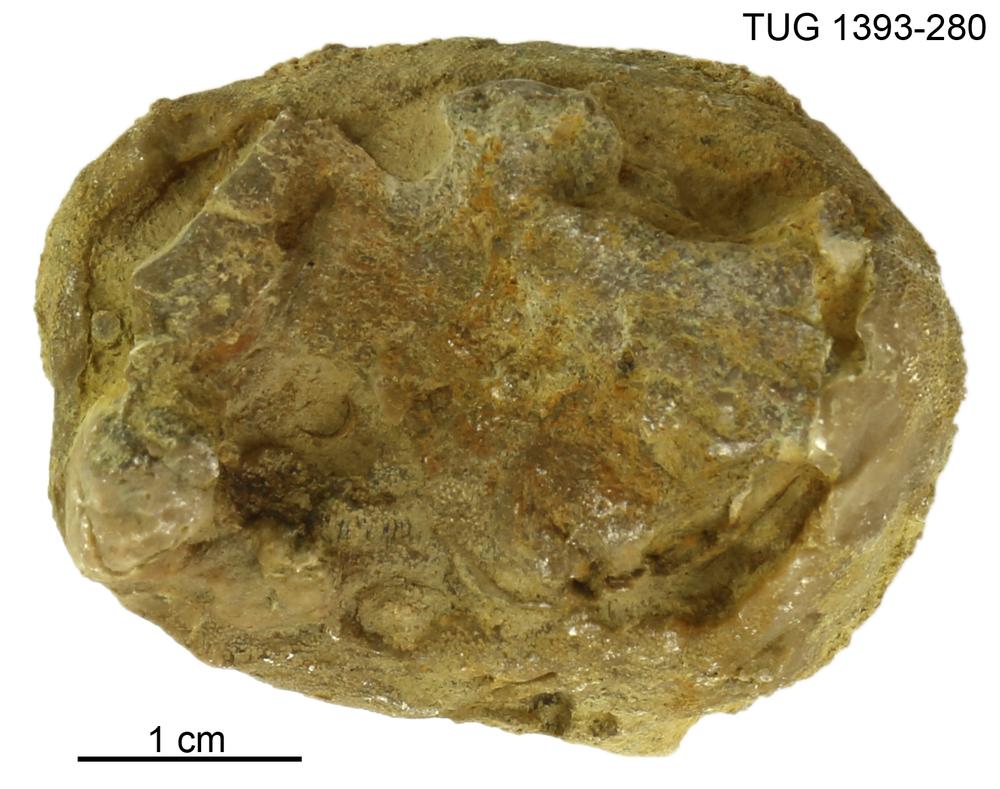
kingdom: Animalia
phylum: Bryozoa
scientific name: Bryozoa
